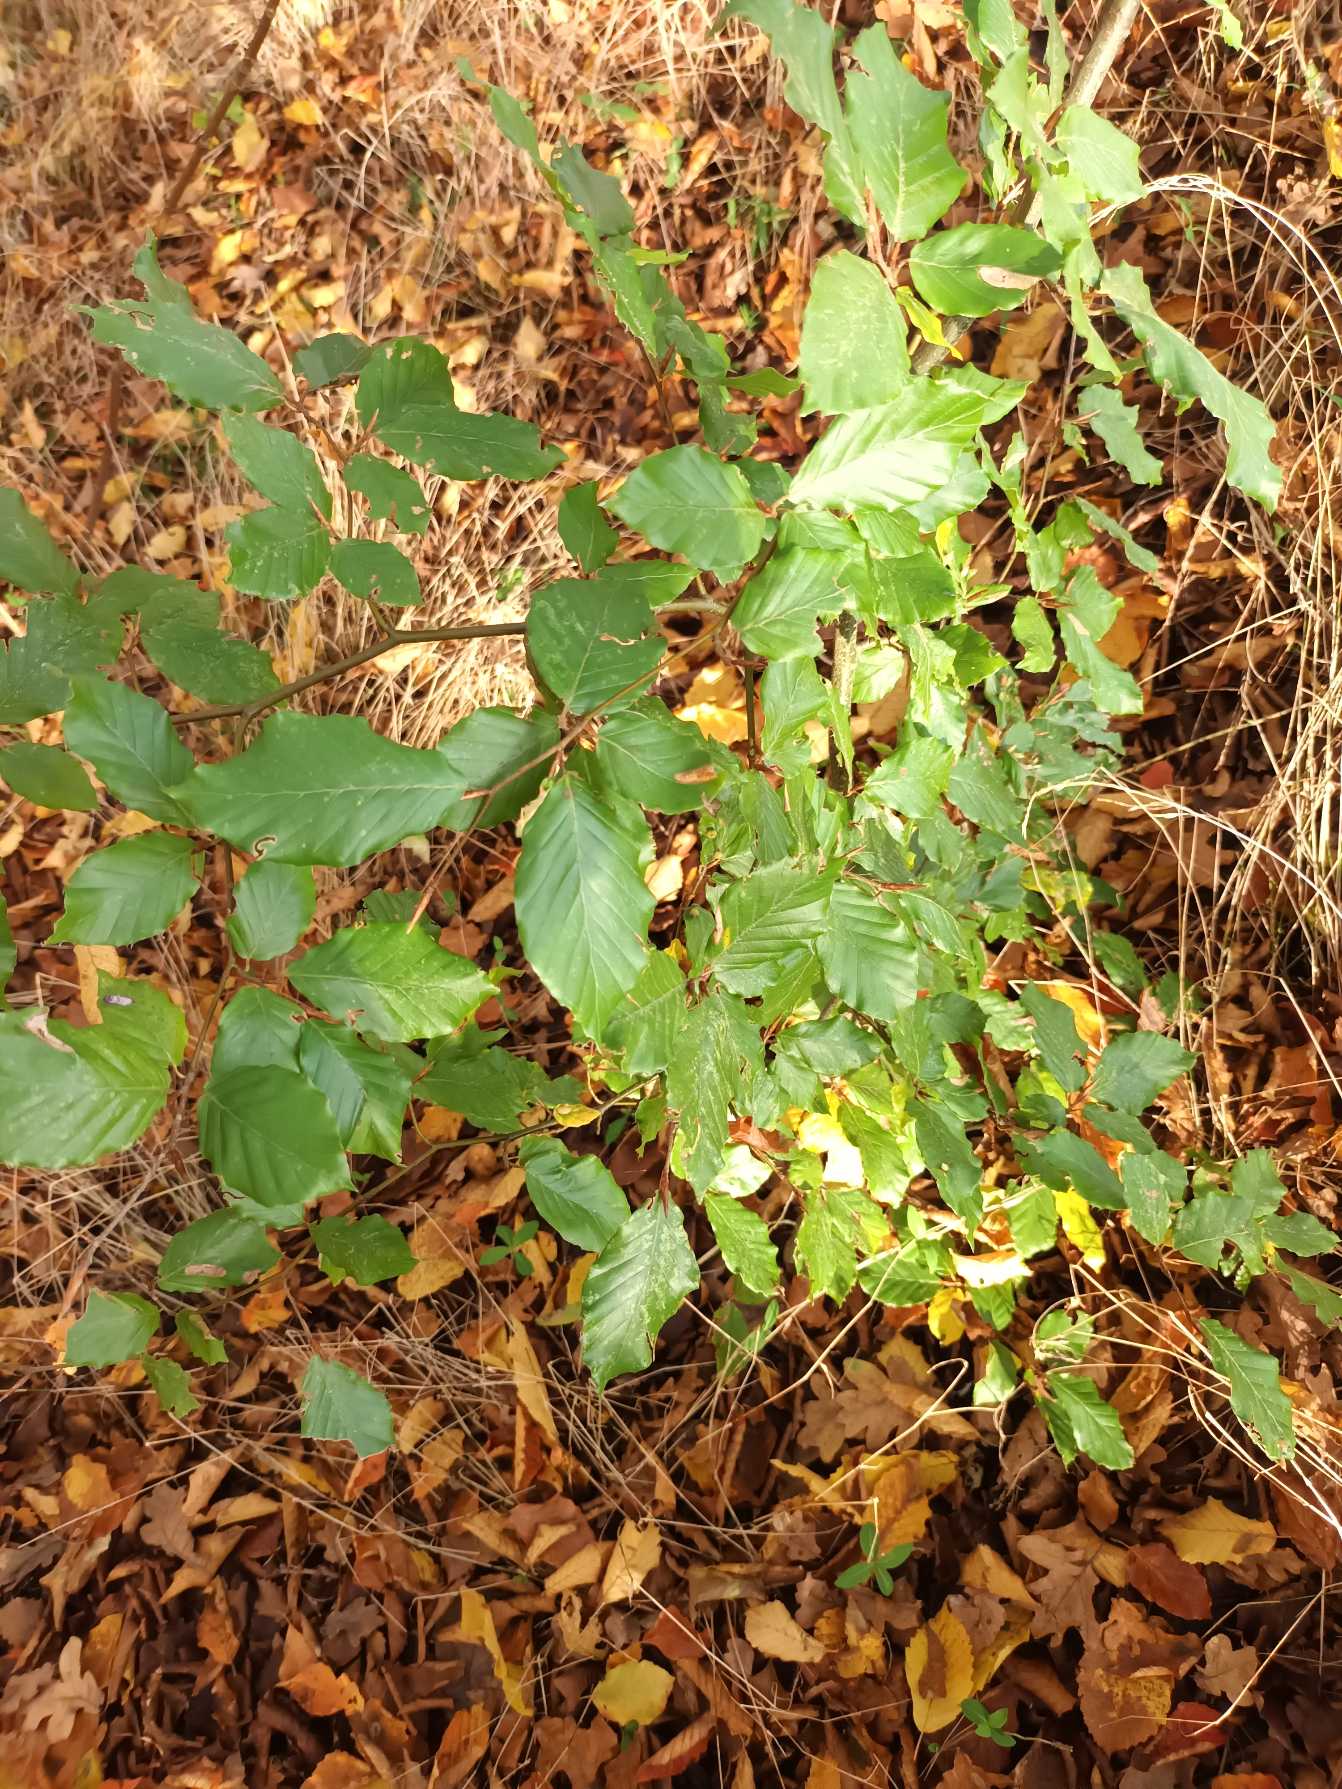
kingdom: Plantae
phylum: Tracheophyta
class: Magnoliopsida
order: Fagales
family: Fagaceae
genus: Fagus
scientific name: Fagus sylvatica
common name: Bøg
